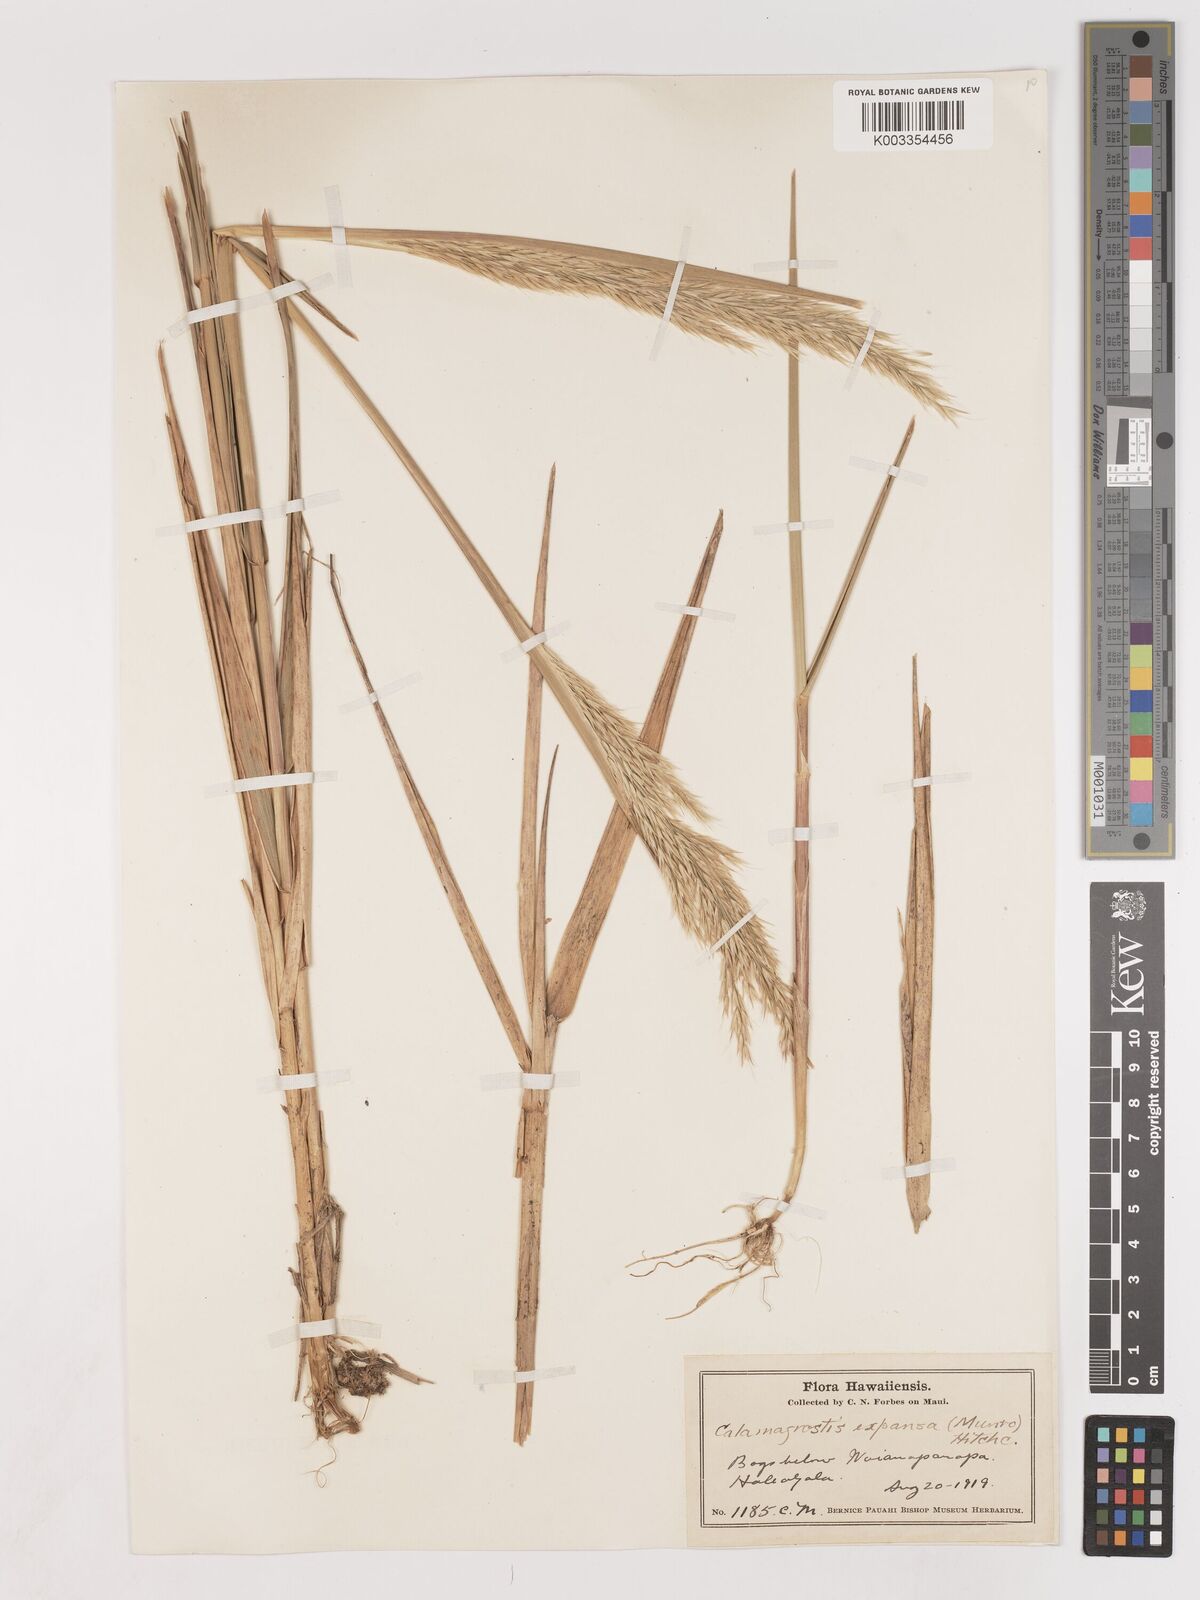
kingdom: Plantae
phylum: Tracheophyta
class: Liliopsida
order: Poales
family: Poaceae
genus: Calamagrostis
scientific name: Calamagrostis expansa
